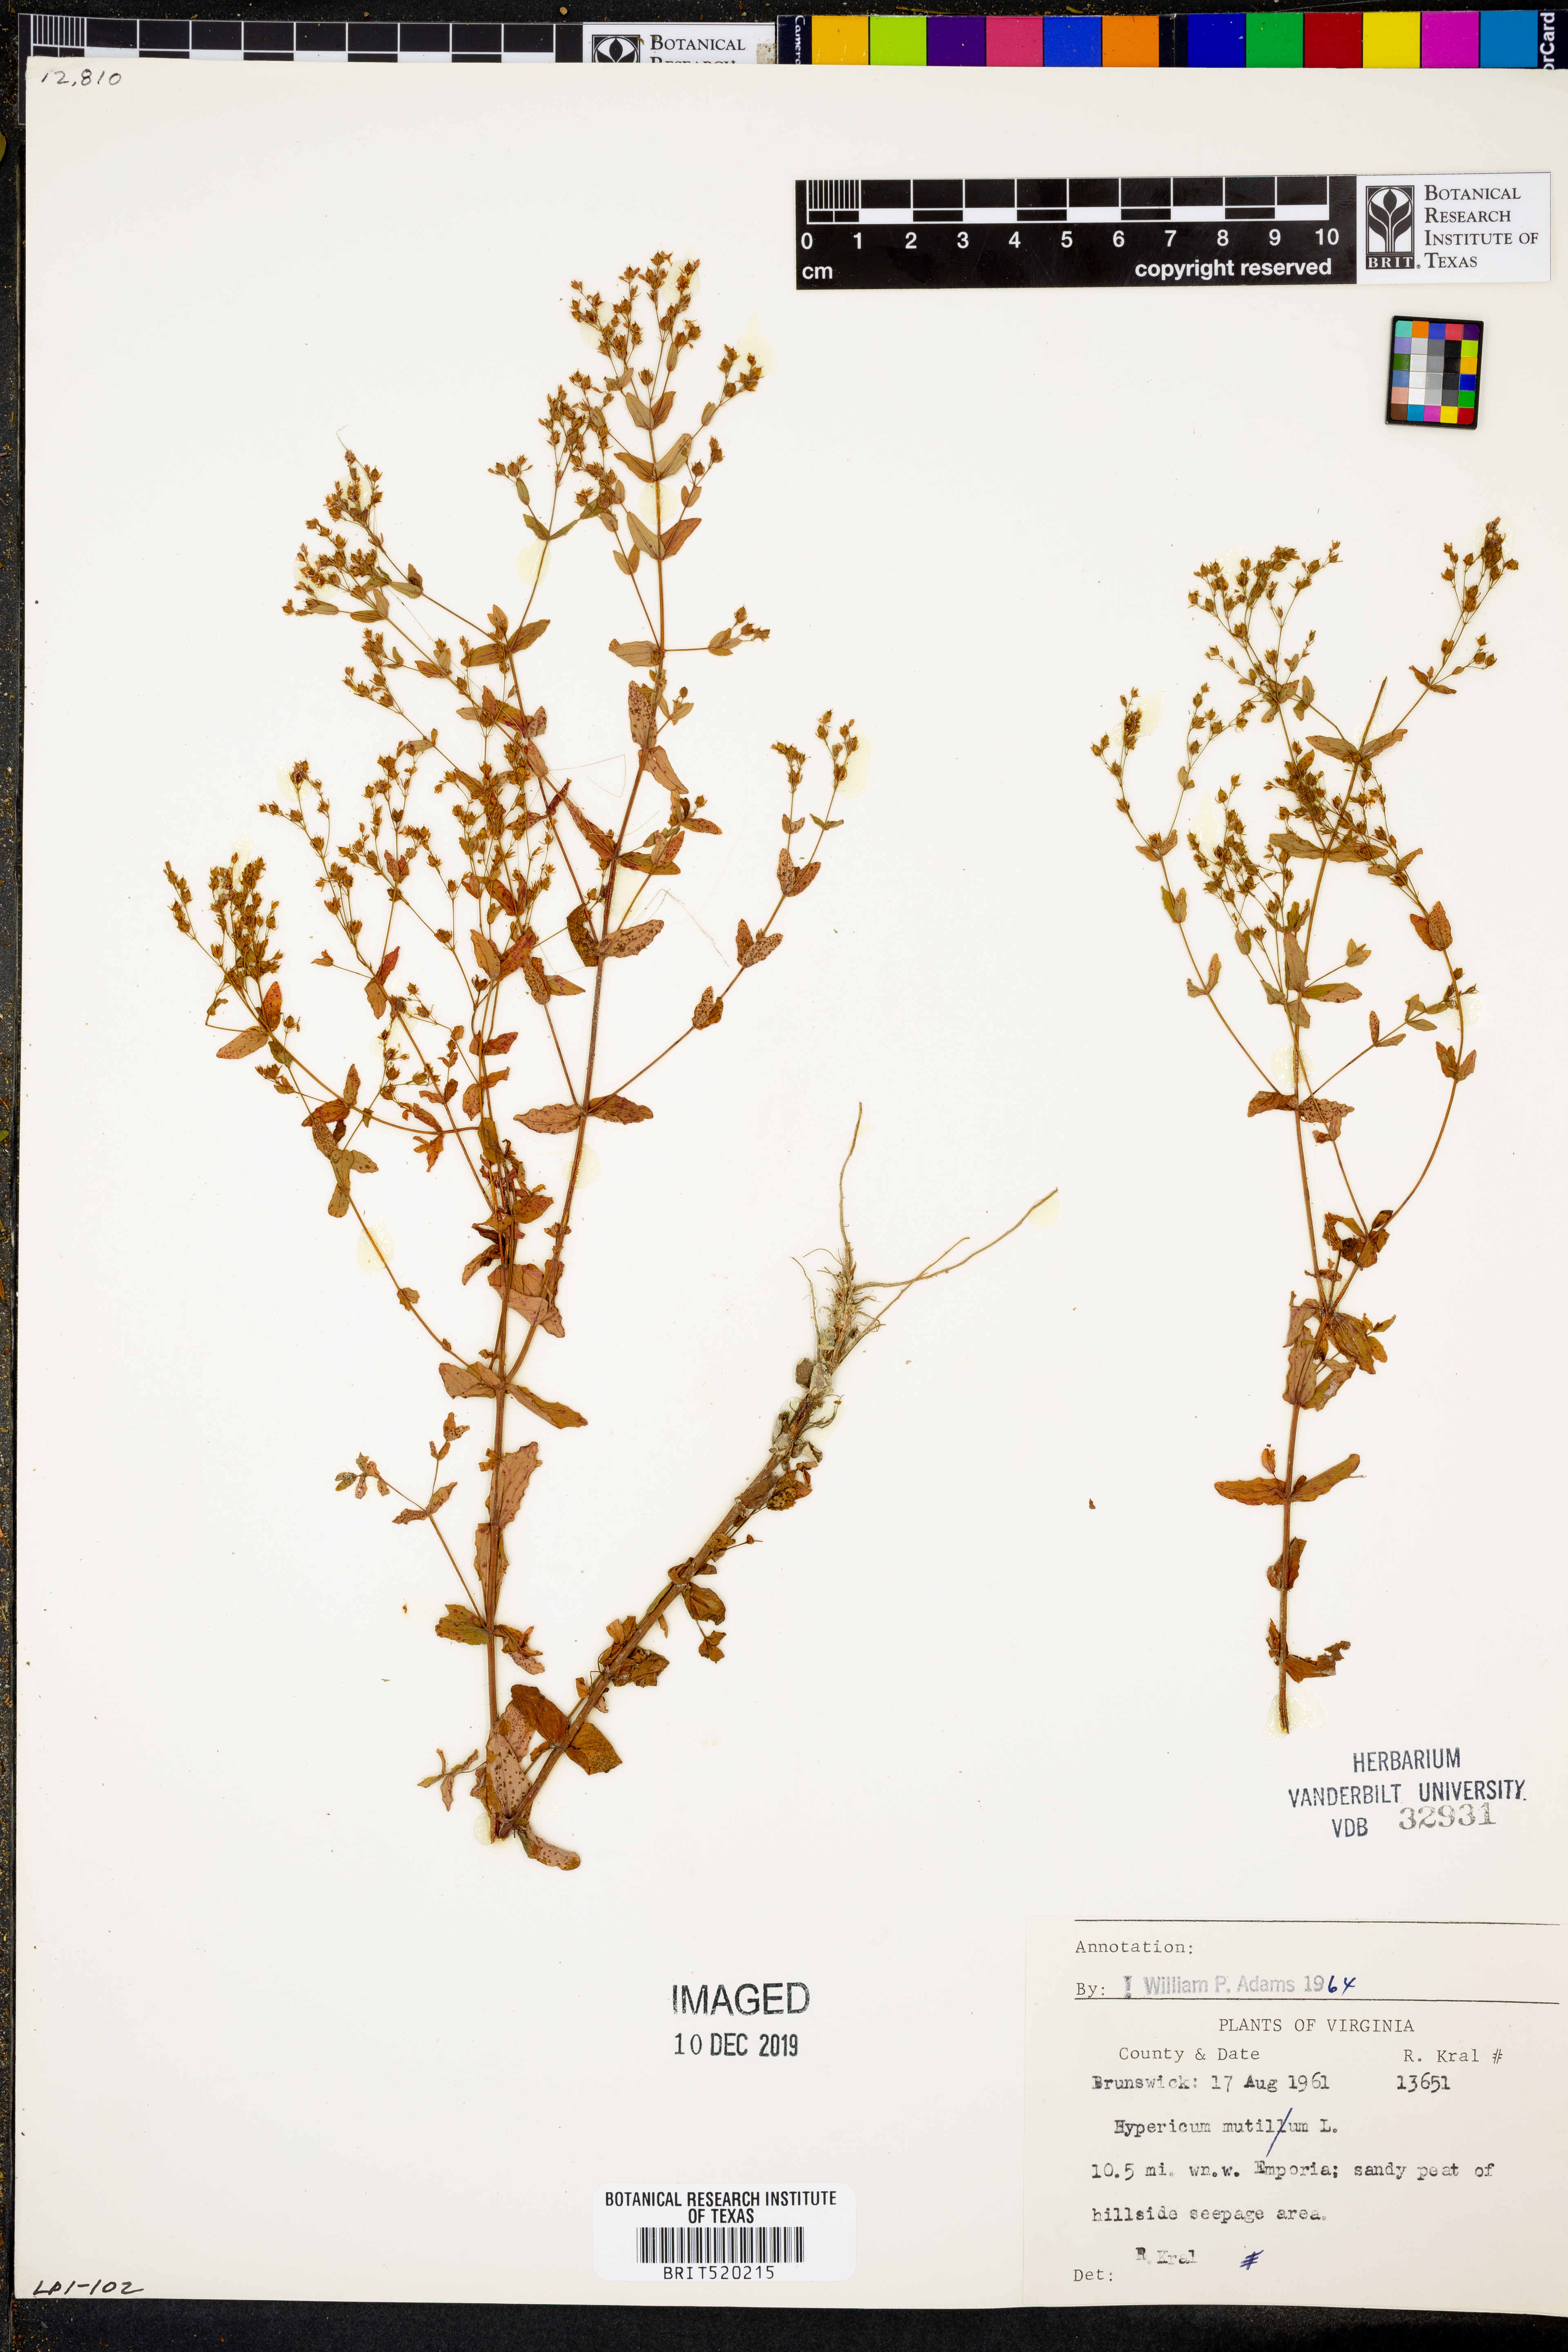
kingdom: Plantae
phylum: Tracheophyta
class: Magnoliopsida
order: Malpighiales
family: Hypericaceae
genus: Hypericum
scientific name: Hypericum mutilum
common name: Dwarf st. john's-wort
